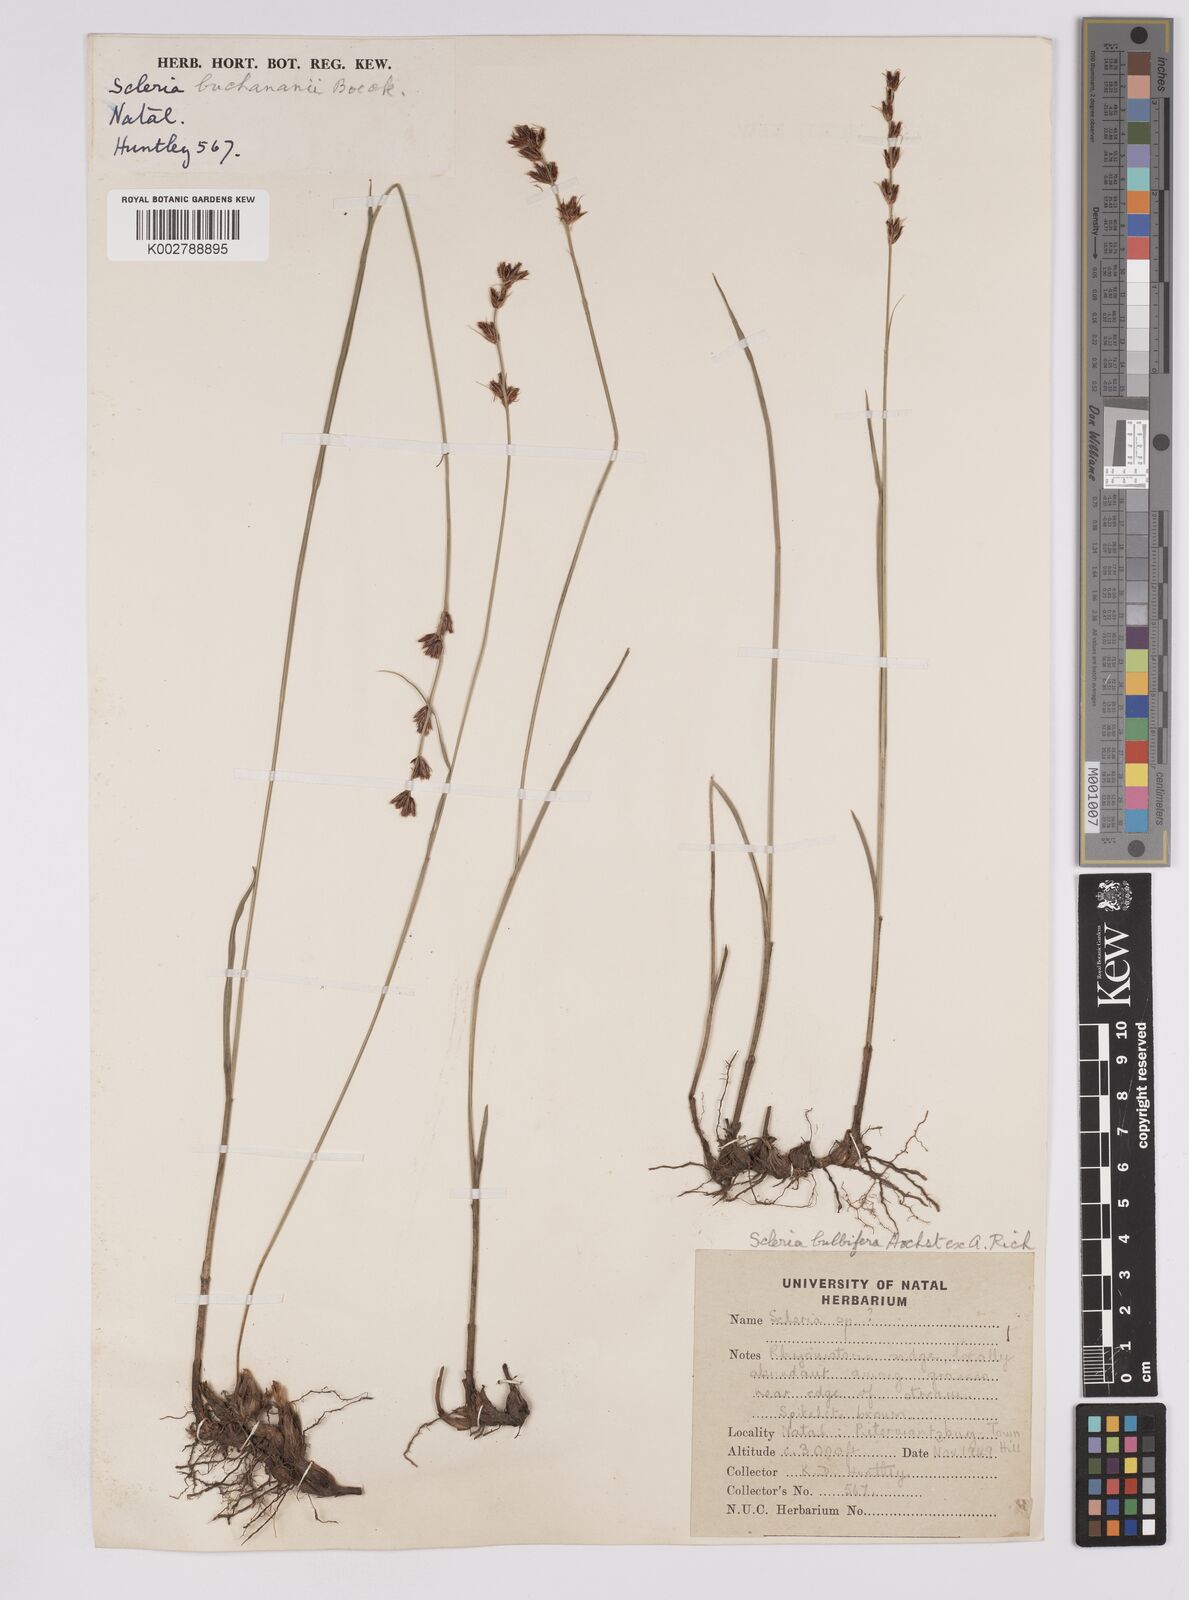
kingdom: Plantae
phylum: Tracheophyta
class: Liliopsida
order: Poales
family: Cyperaceae
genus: Scleria
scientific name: Scleria bulbifera
